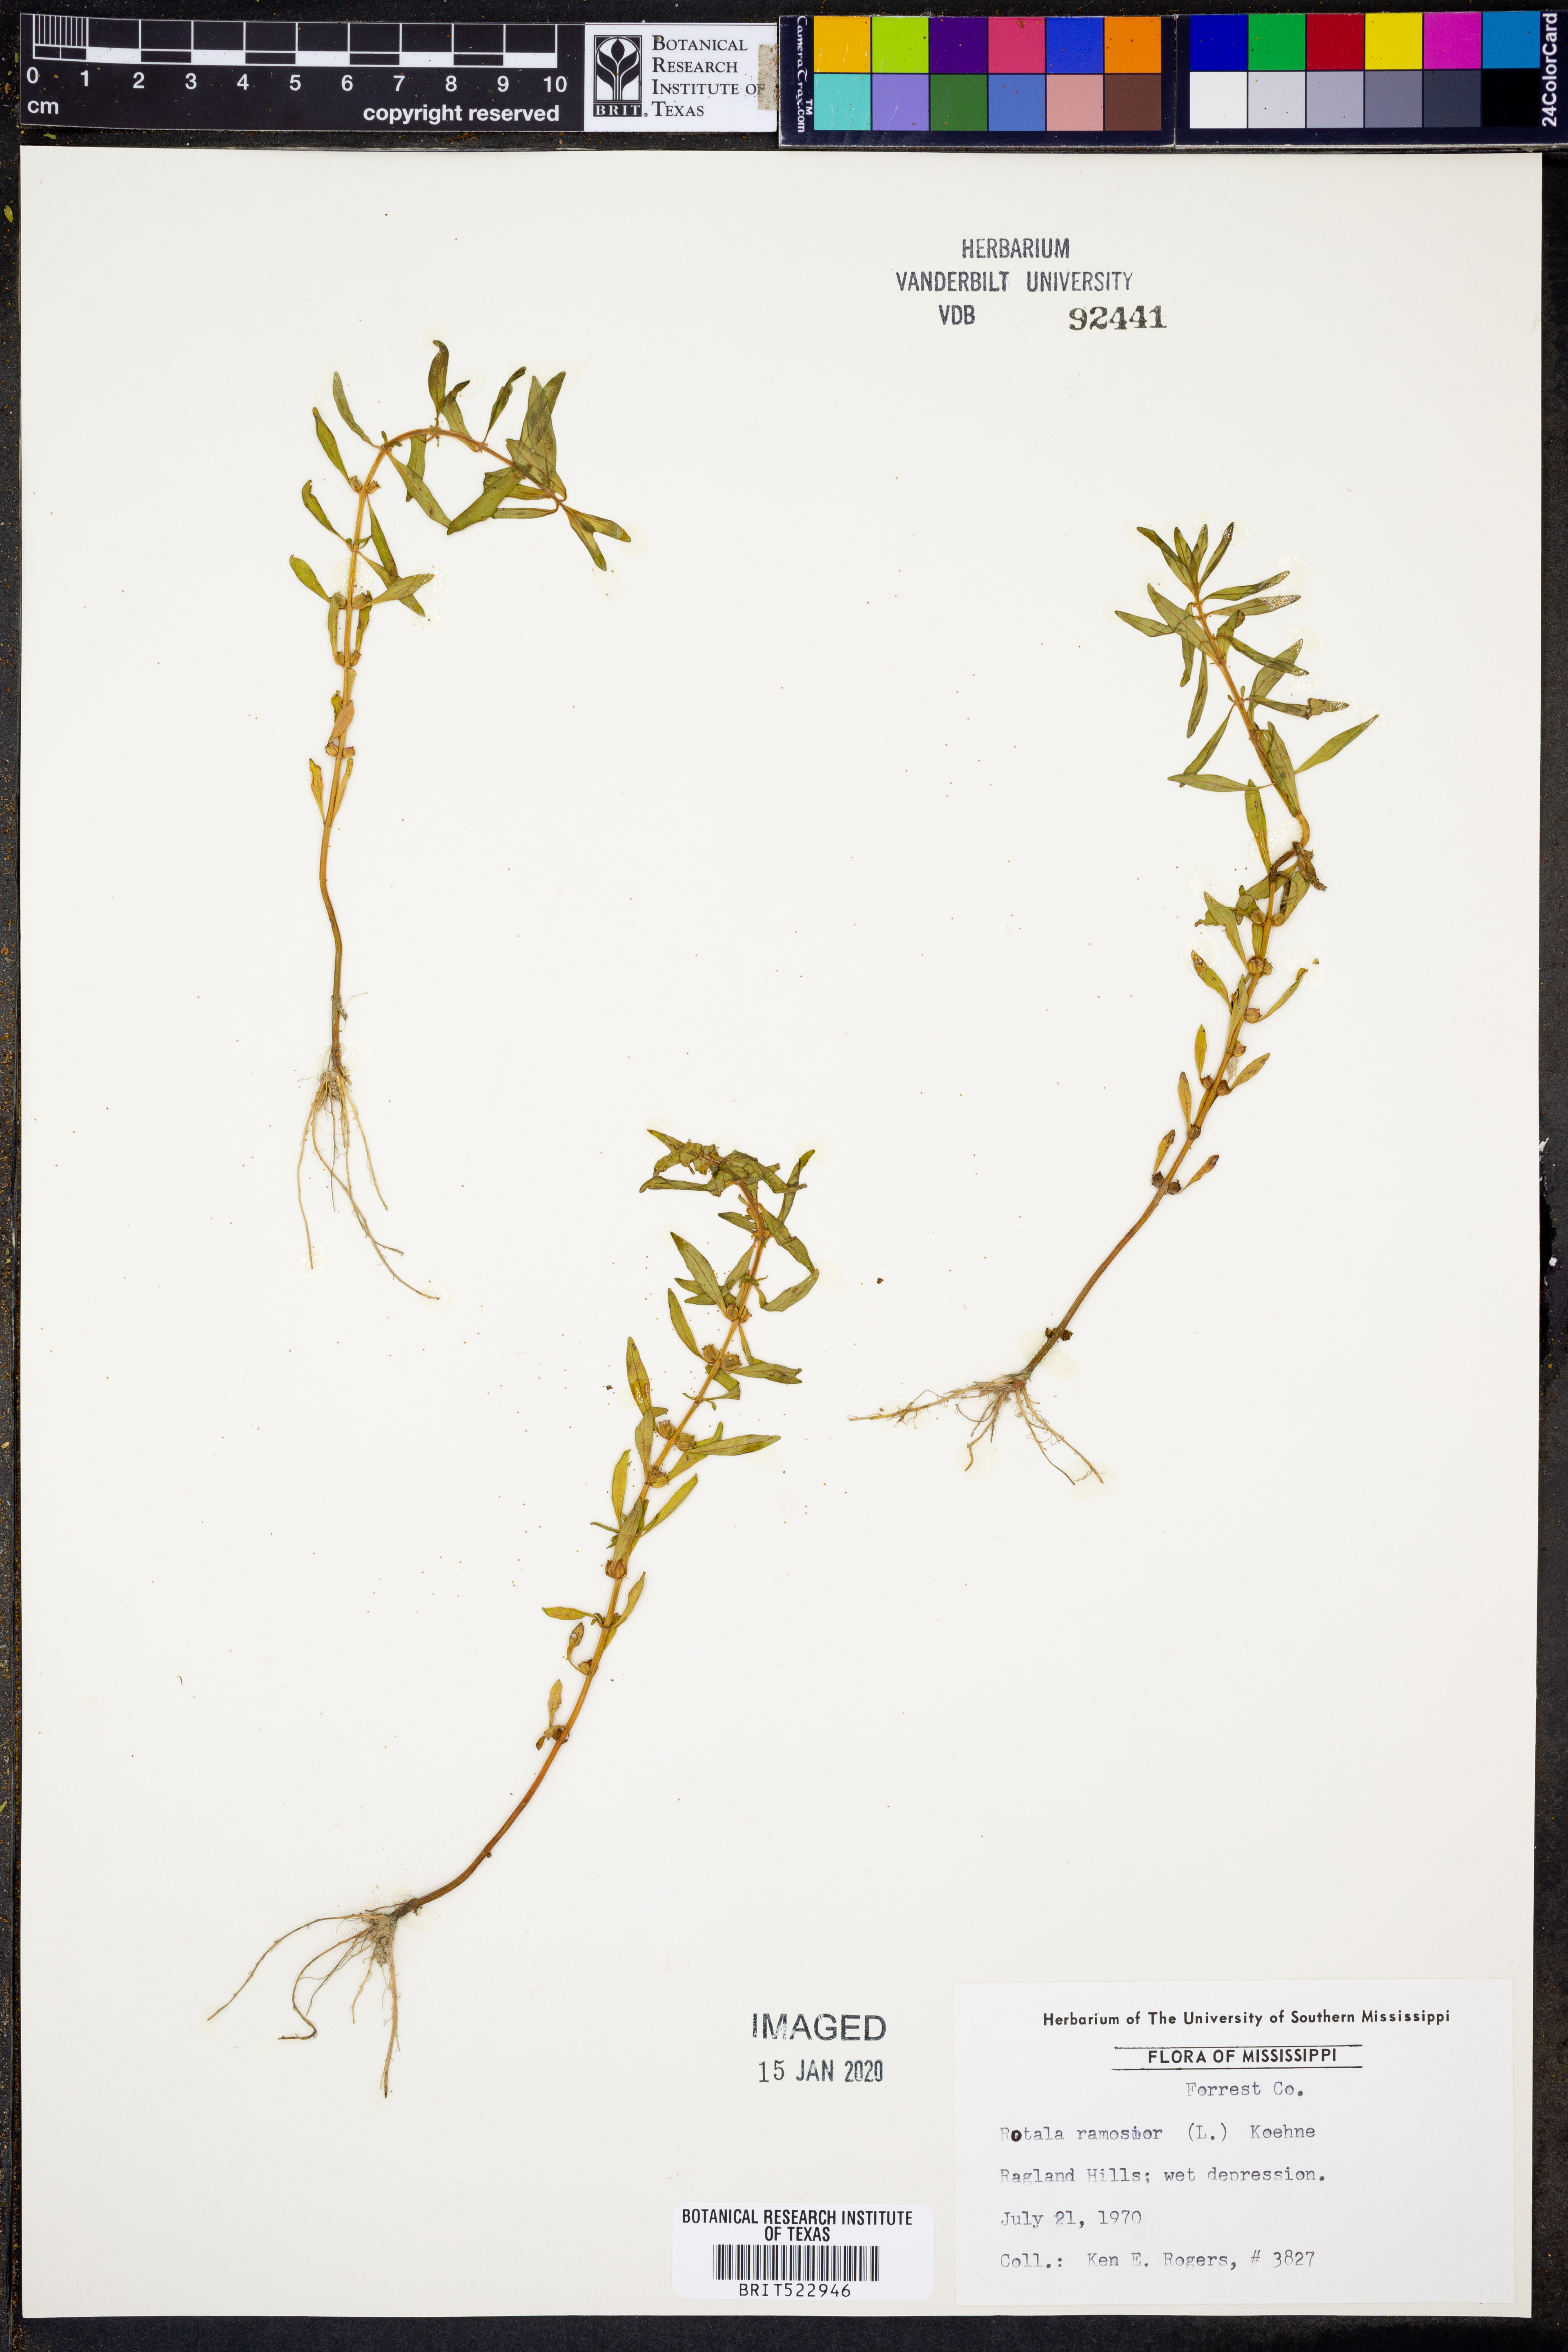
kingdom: Plantae
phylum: Tracheophyta
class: Magnoliopsida
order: Myrtales
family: Lythraceae
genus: Rotala
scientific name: Rotala ramosior
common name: Lowland rotala
